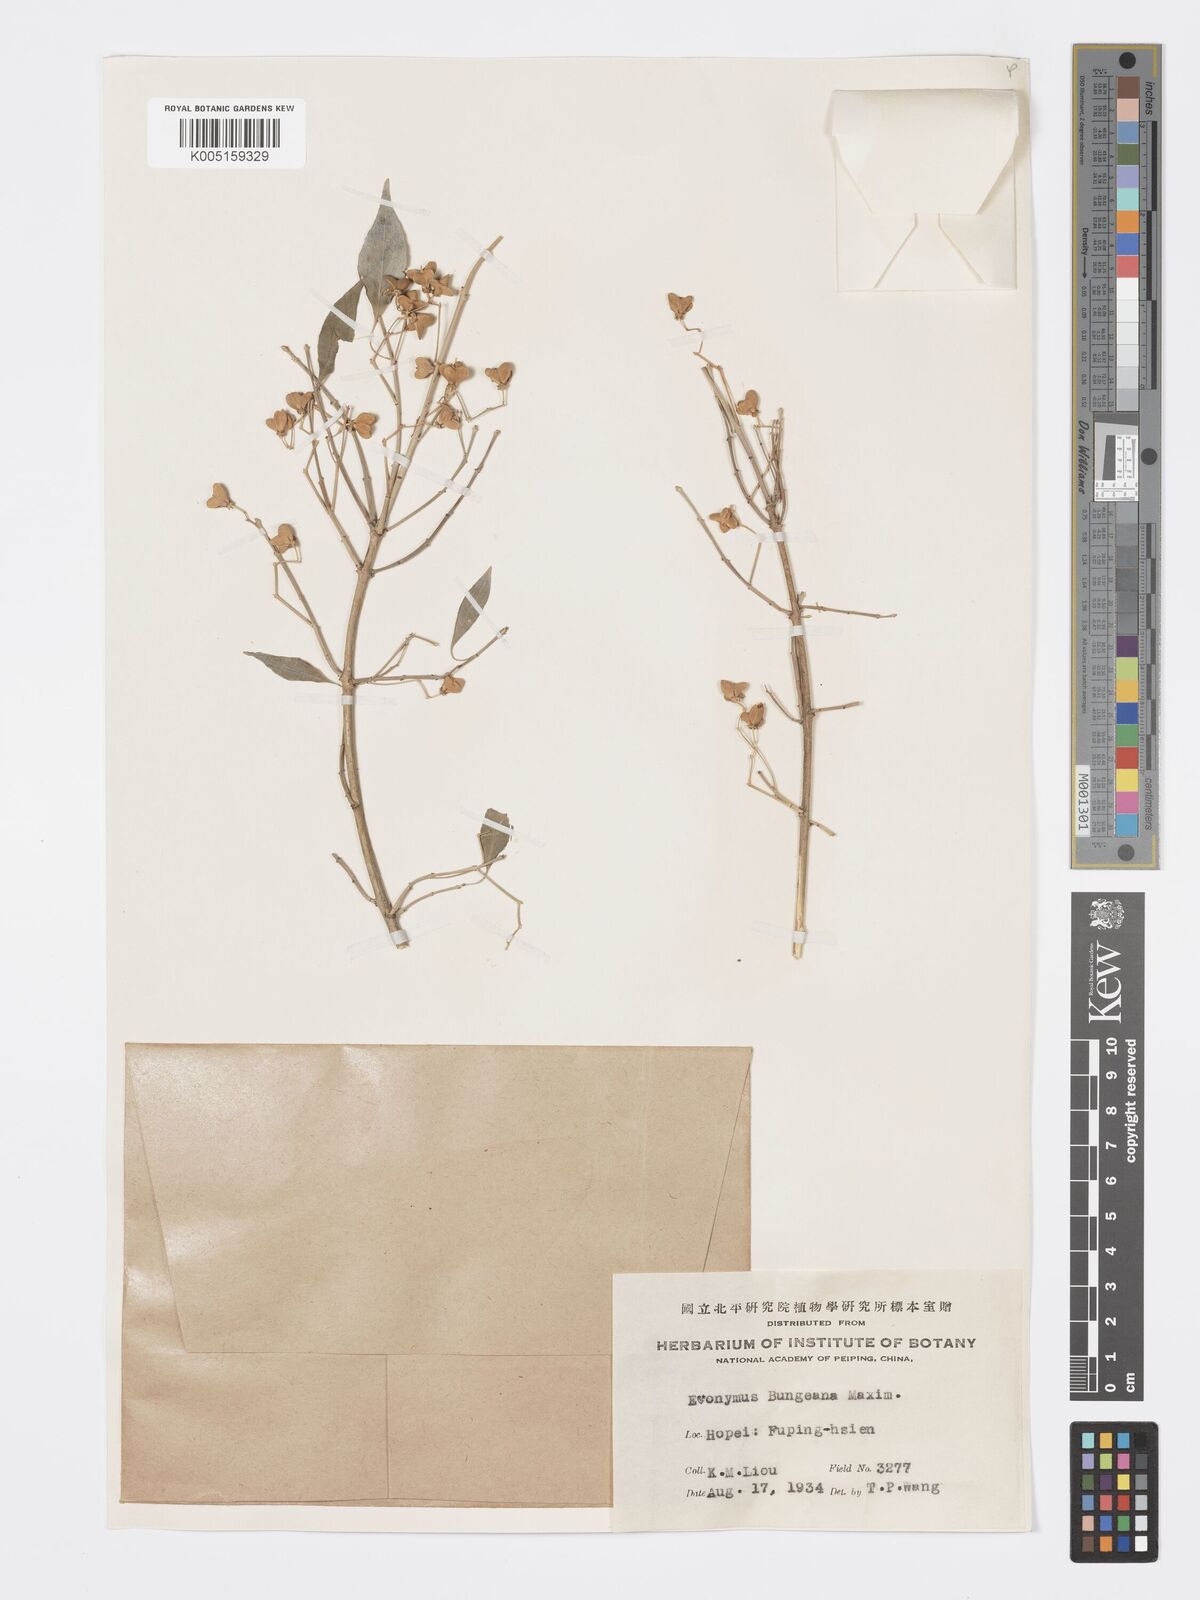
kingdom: Plantae
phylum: Tracheophyta
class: Magnoliopsida
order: Celastrales
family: Celastraceae
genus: Euonymus
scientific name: Euonymus maackii
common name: Hamilton's spindletree
